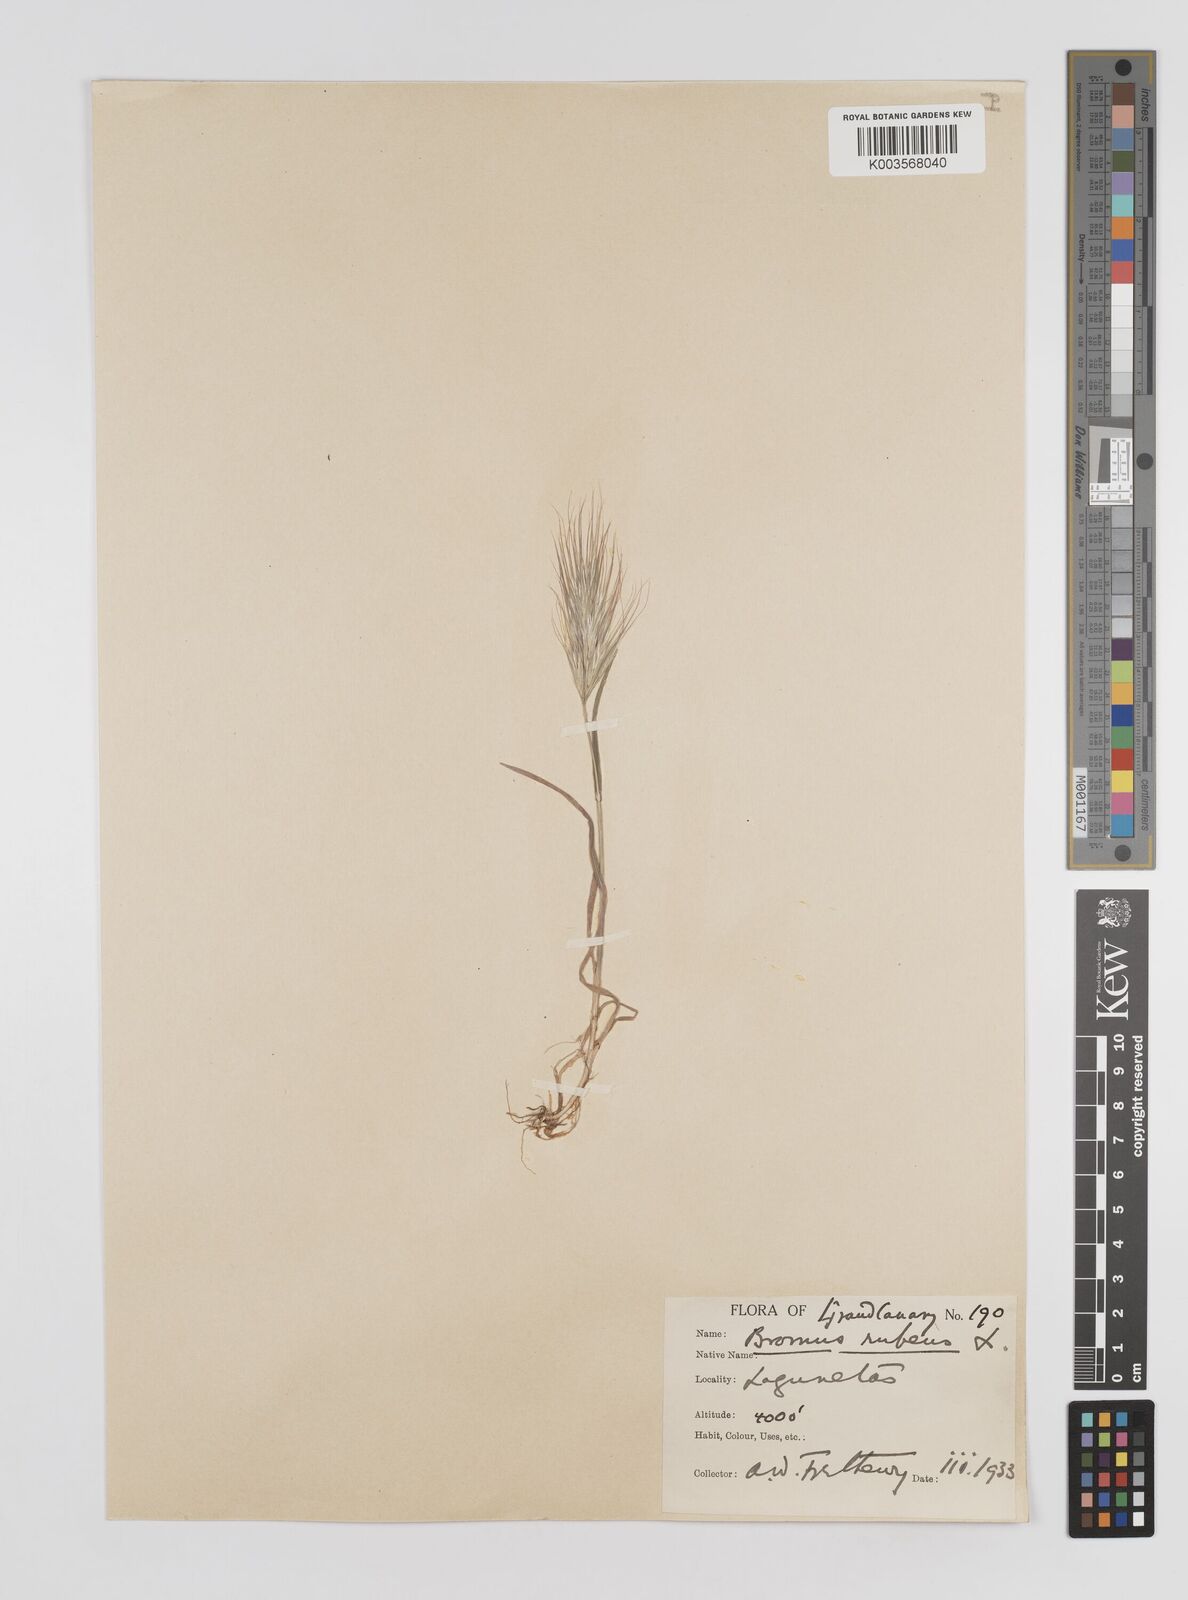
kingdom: Plantae
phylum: Tracheophyta
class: Liliopsida
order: Poales
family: Poaceae
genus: Bromus
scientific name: Bromus
